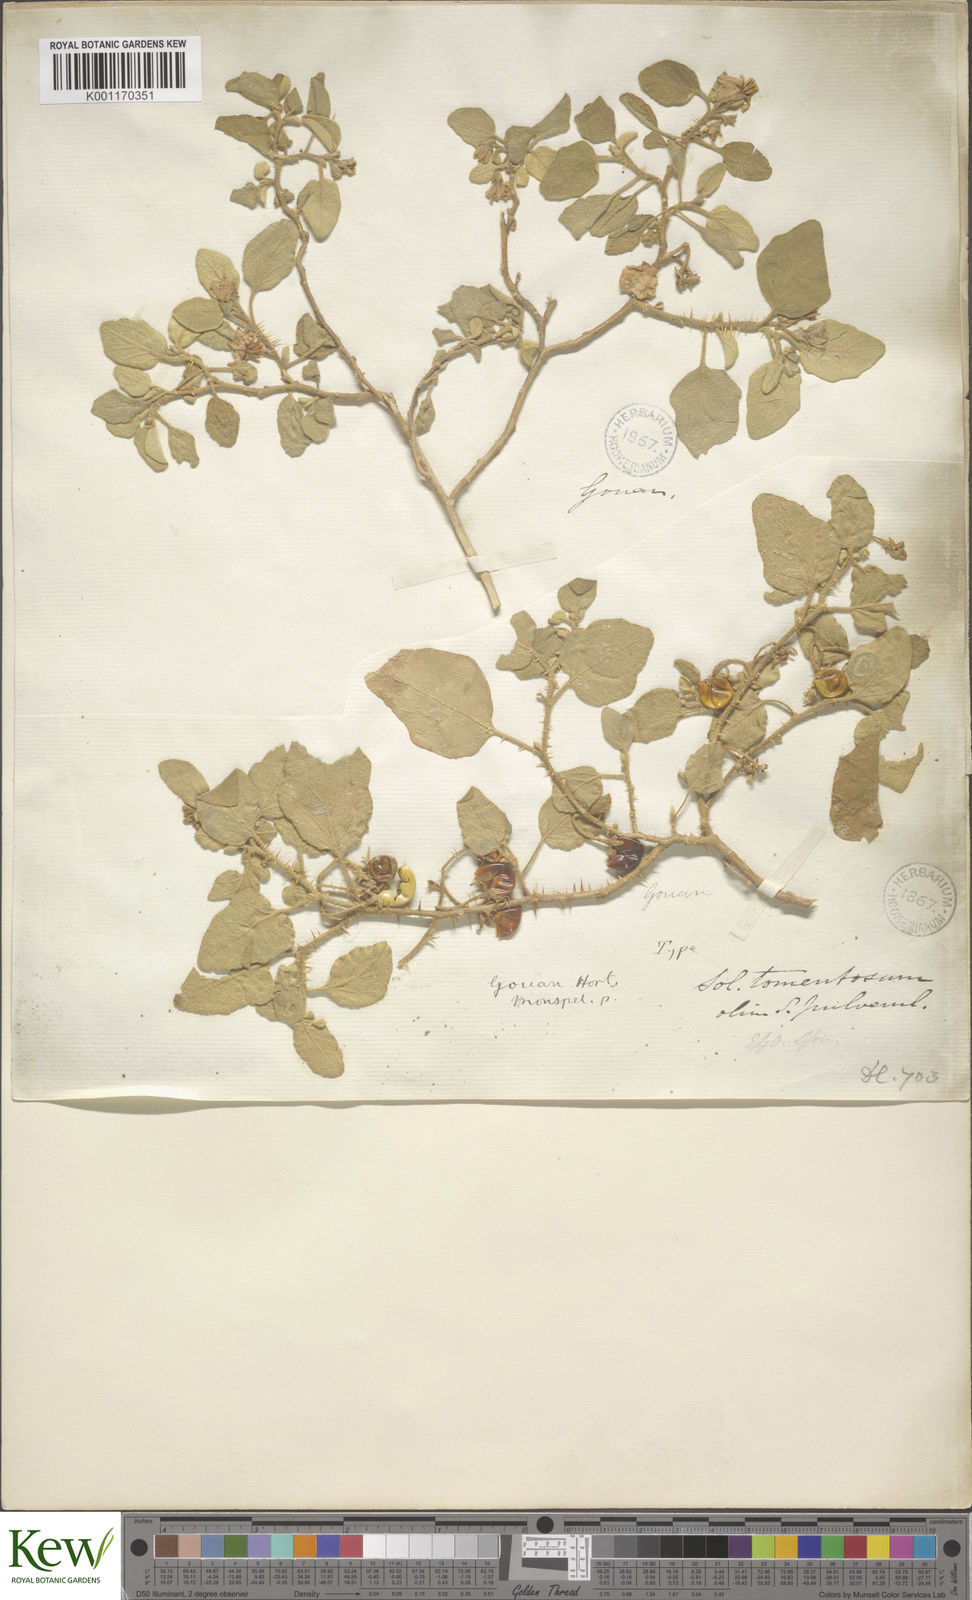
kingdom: Plantae
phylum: Tracheophyta
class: Magnoliopsida
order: Solanales
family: Solanaceae
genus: Solanum
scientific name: Solanum tomentosum
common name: Wild aubergine
